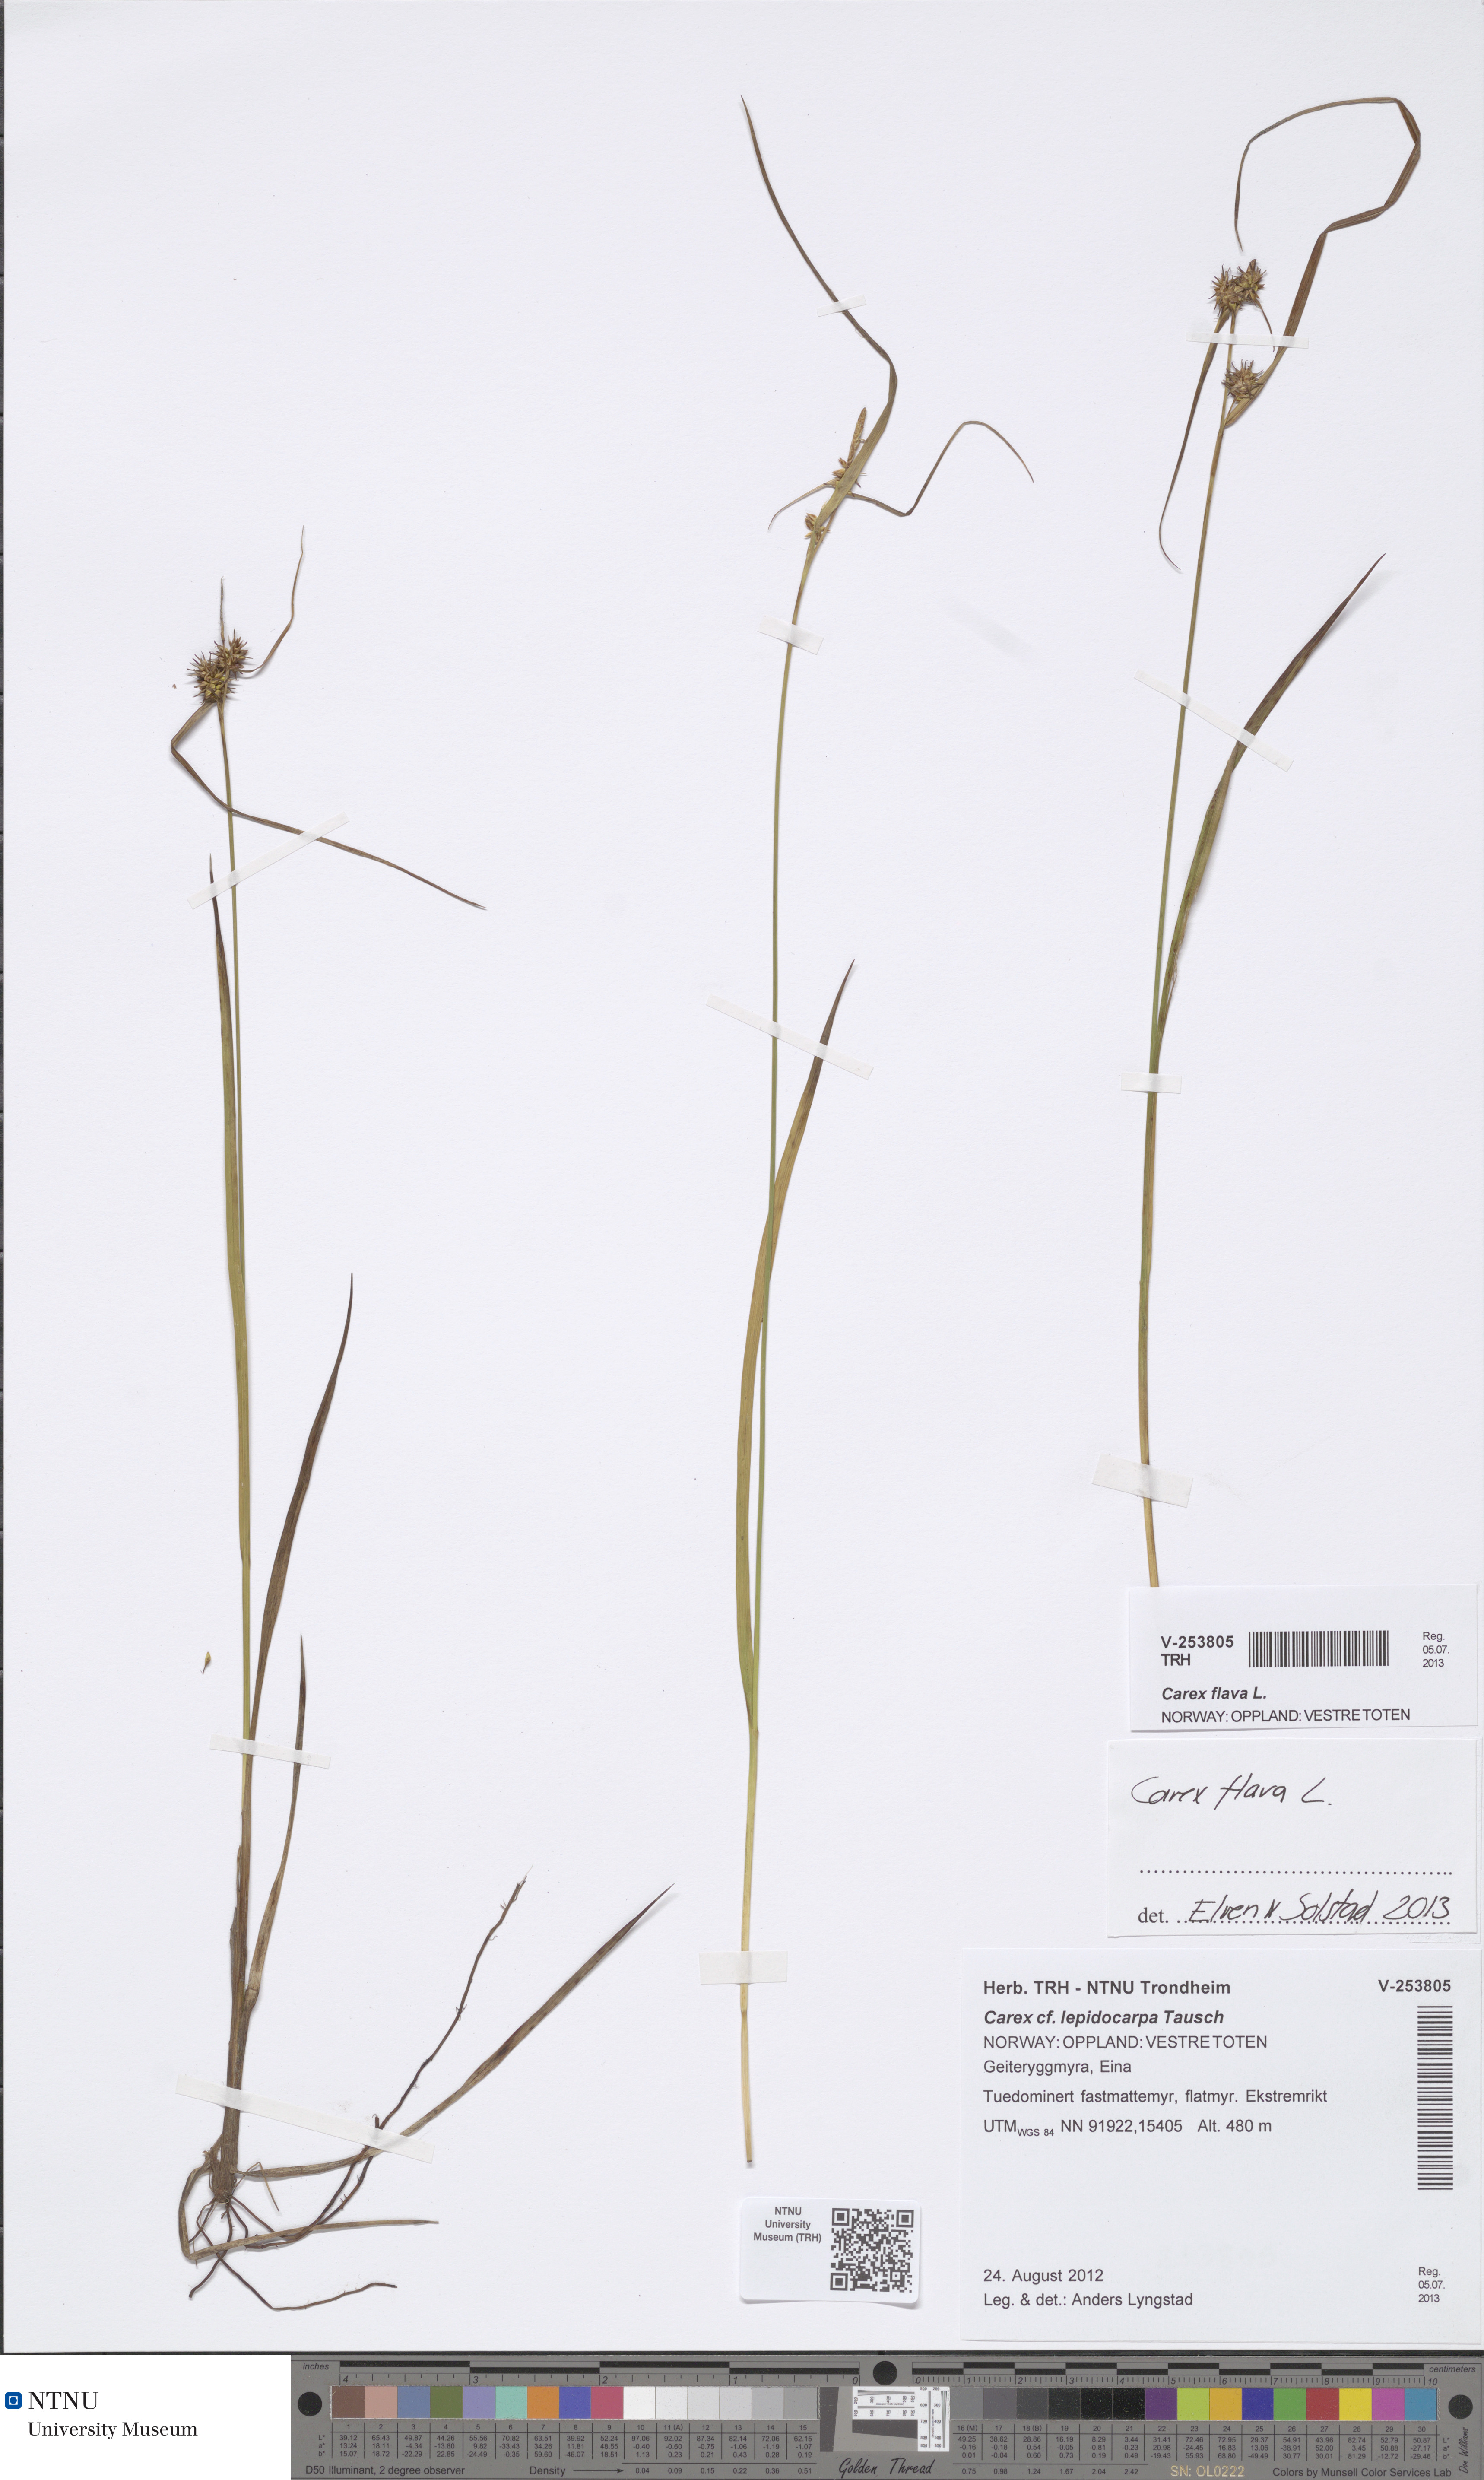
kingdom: Plantae
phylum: Tracheophyta
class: Liliopsida
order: Poales
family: Cyperaceae
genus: Carex
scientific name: Carex flava
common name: Large yellow-sedge
